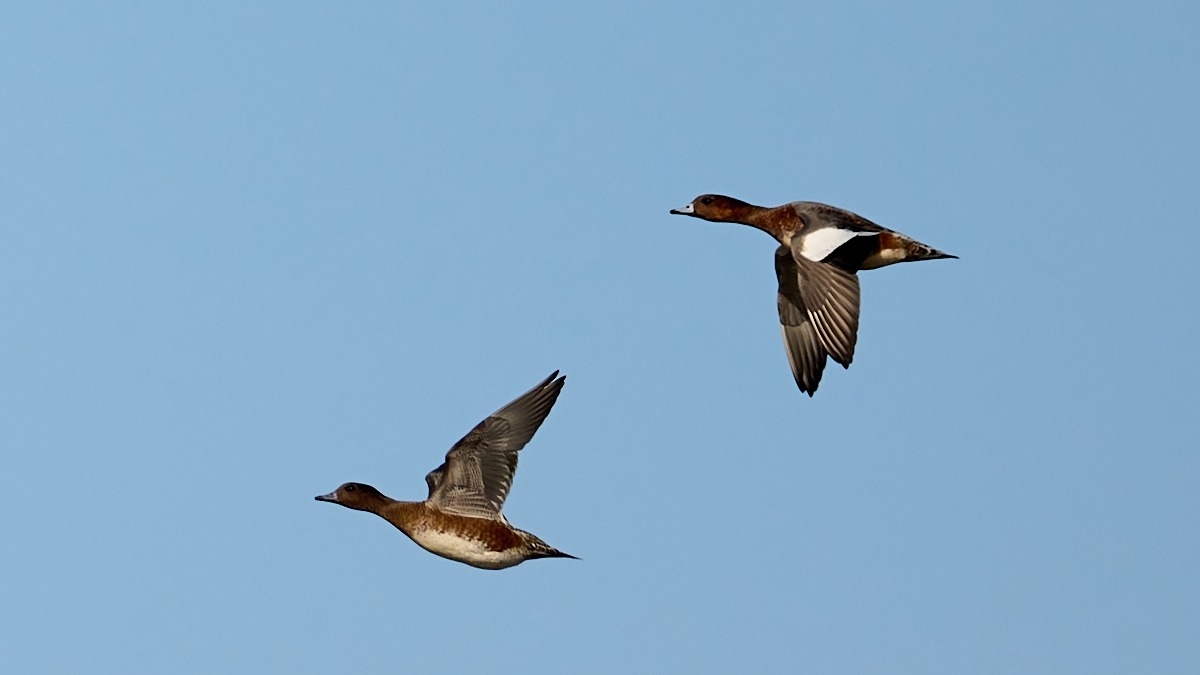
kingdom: Animalia
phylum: Chordata
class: Aves
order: Anseriformes
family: Anatidae
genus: Mareca
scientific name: Mareca penelope
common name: Pibeand
